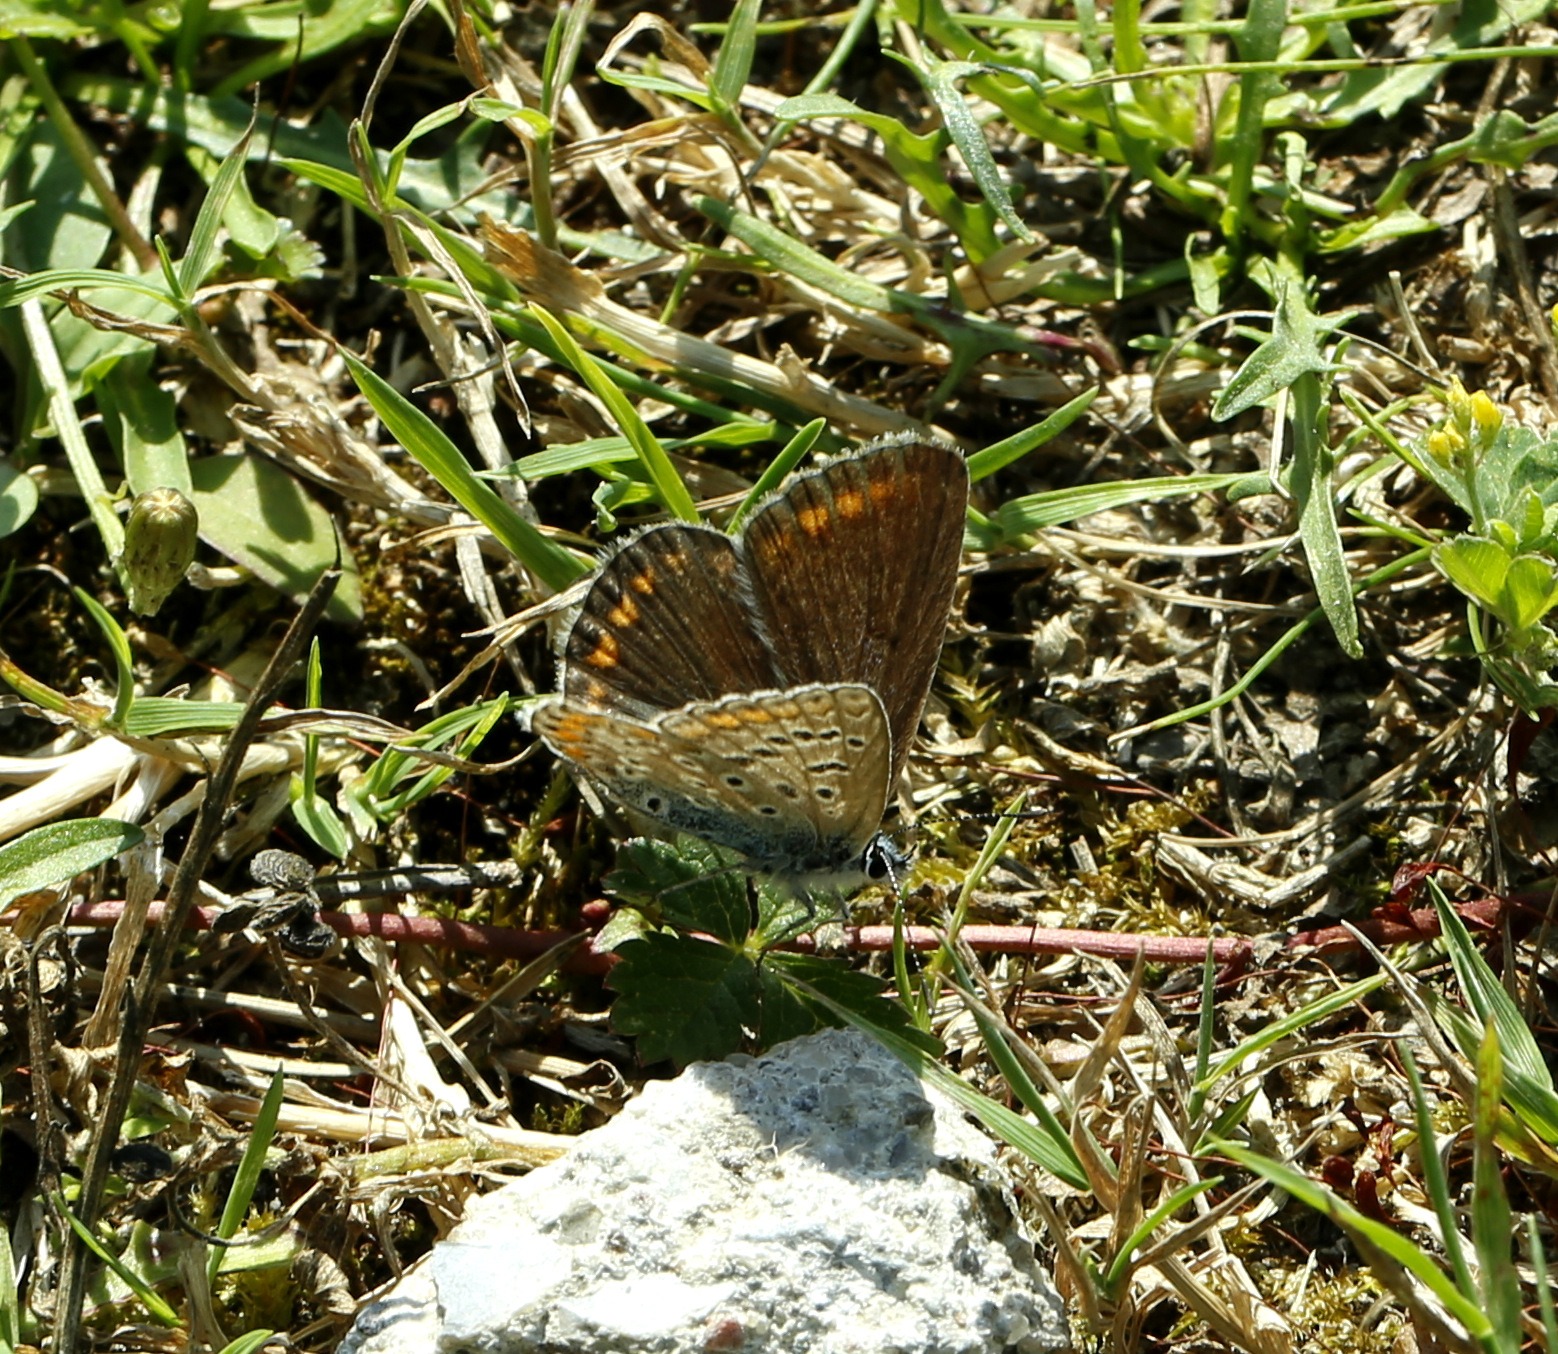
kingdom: Animalia
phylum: Arthropoda
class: Insecta
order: Lepidoptera
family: Lycaenidae
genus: Polyommatus
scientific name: Polyommatus icarus
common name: Almindelig blåfugl
